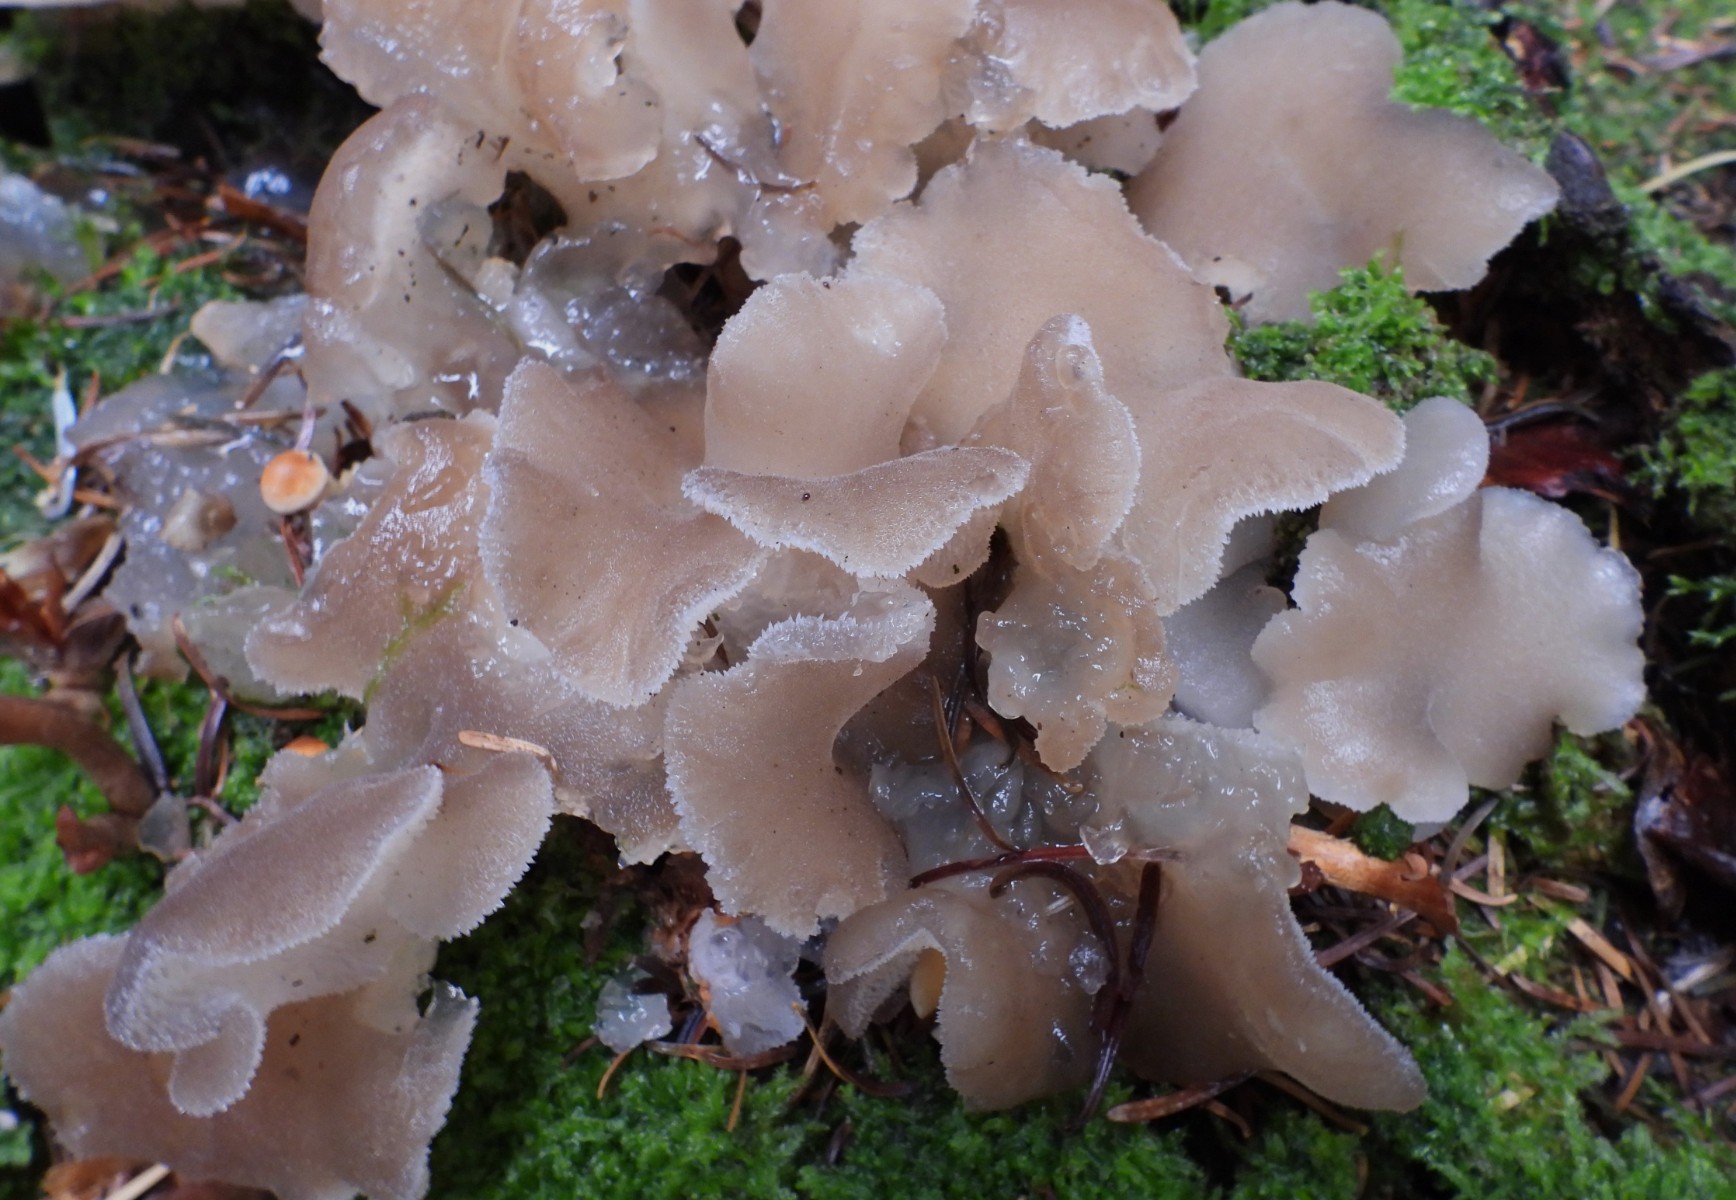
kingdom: Fungi
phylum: Basidiomycota
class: Agaricomycetes
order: Auriculariales
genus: Pseudohydnum
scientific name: Pseudohydnum gelatinosum
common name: bævretand
